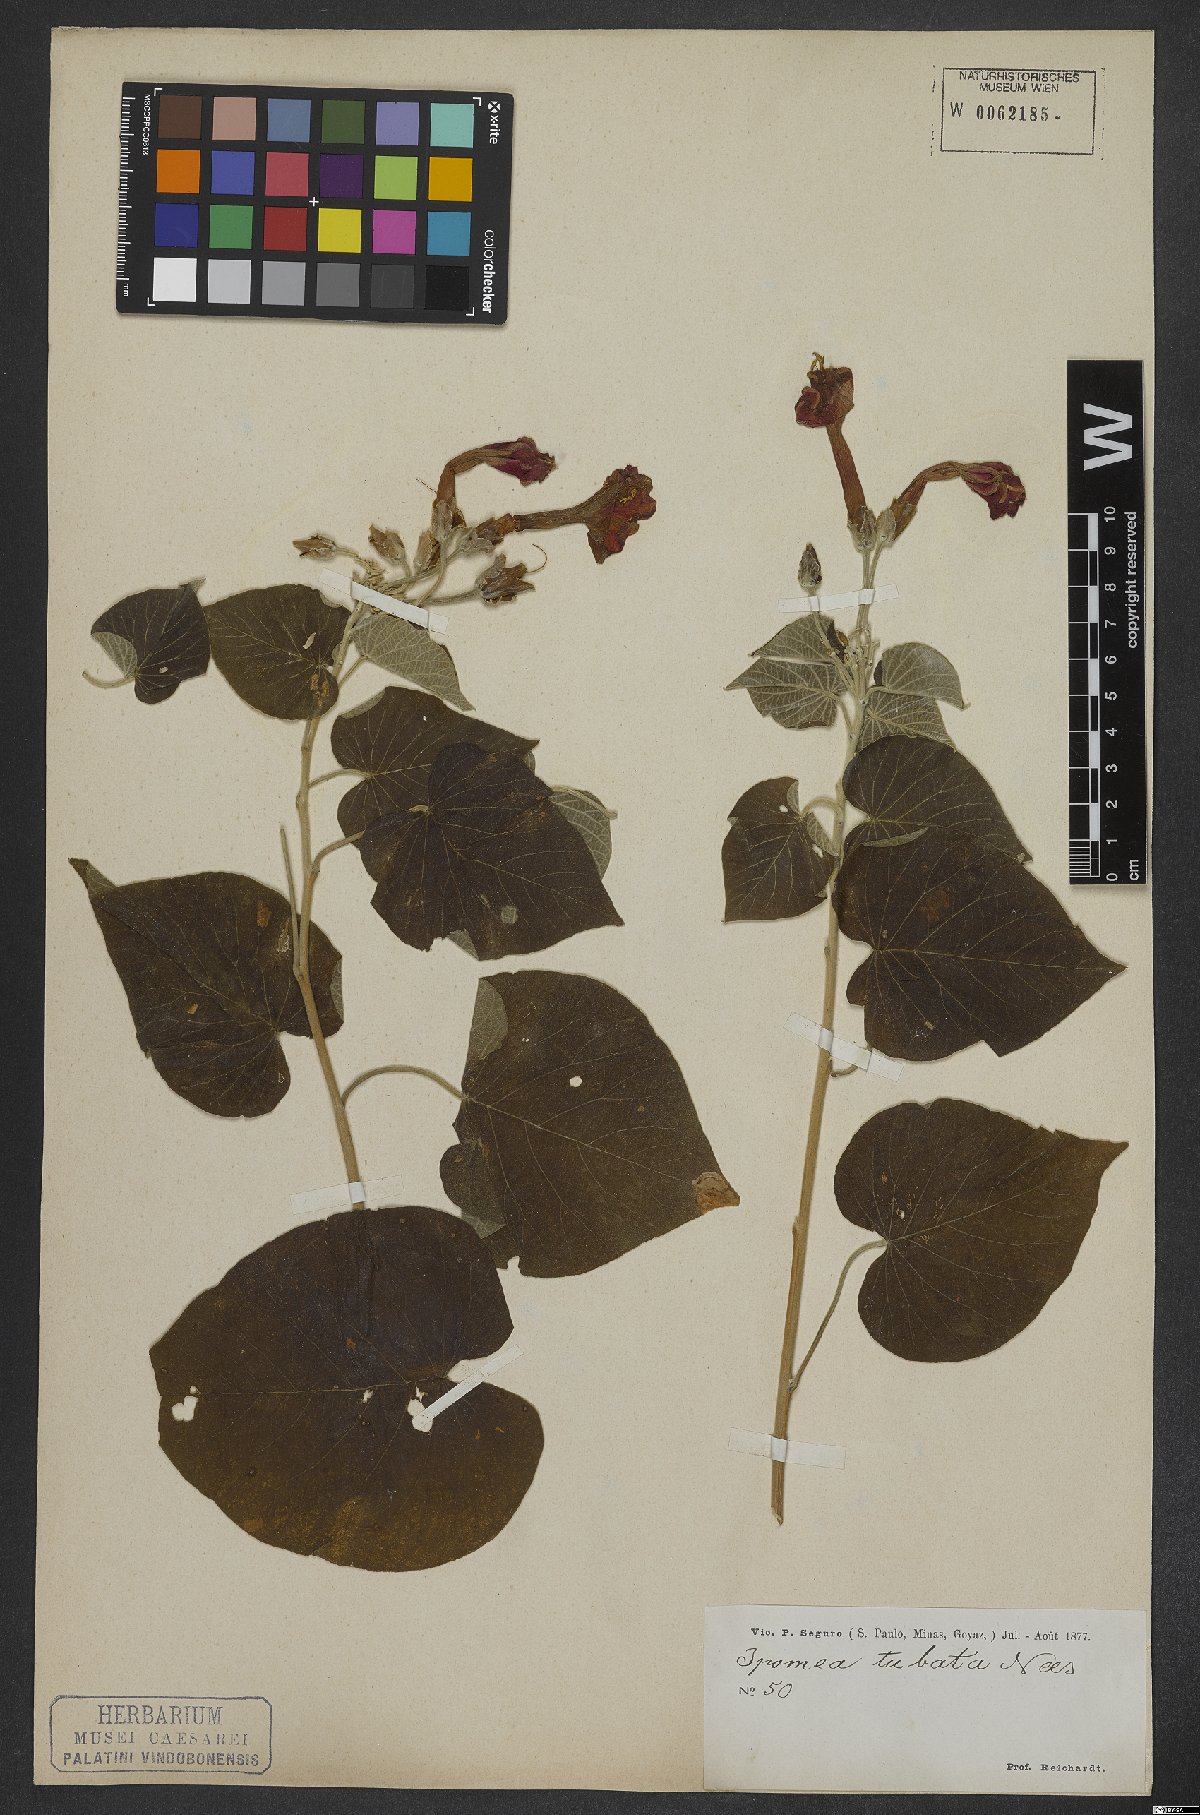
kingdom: Plantae
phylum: Tracheophyta
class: Magnoliopsida
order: Solanales
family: Convolvulaceae
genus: Ipomoea
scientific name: Ipomoea sidifolia
